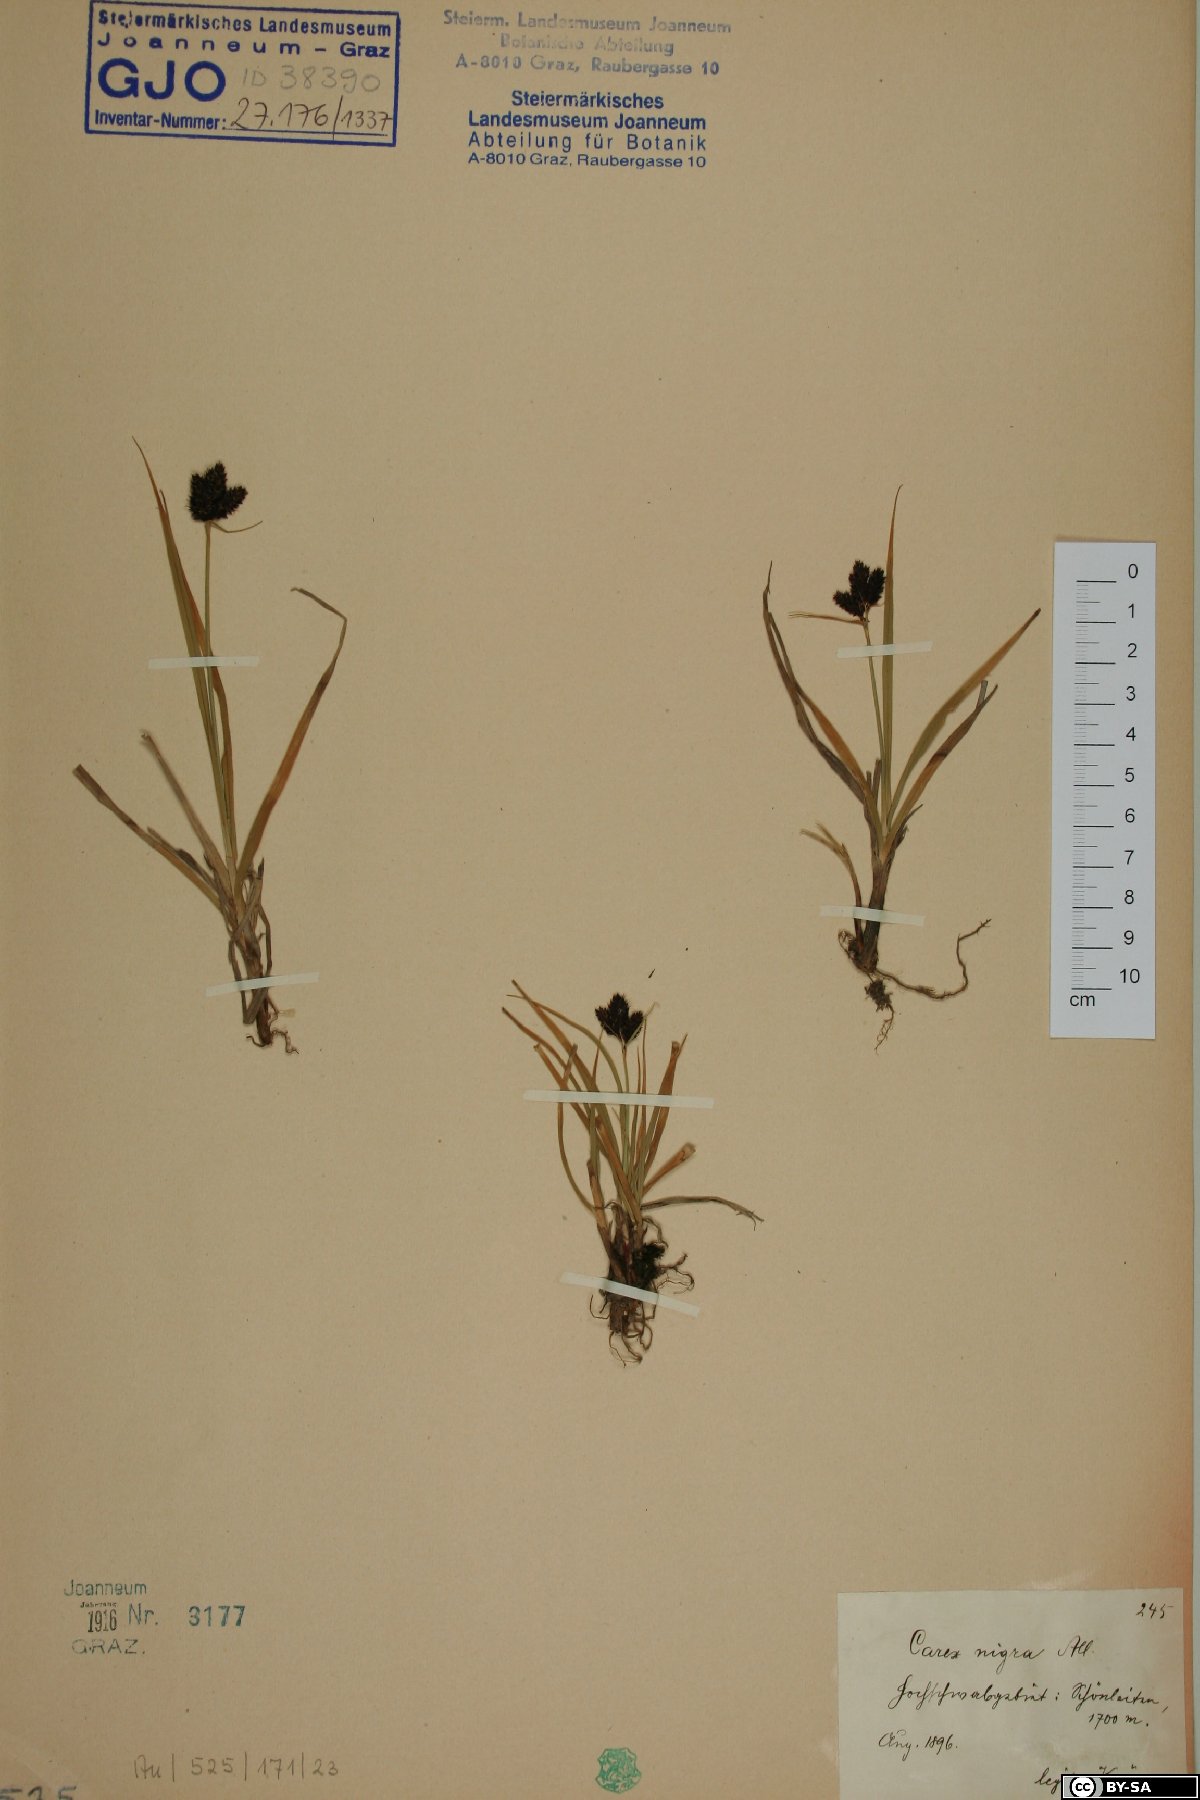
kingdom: Plantae
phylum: Tracheophyta
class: Liliopsida
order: Poales
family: Cyperaceae
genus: Carex
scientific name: Carex nigra
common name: Common sedge
